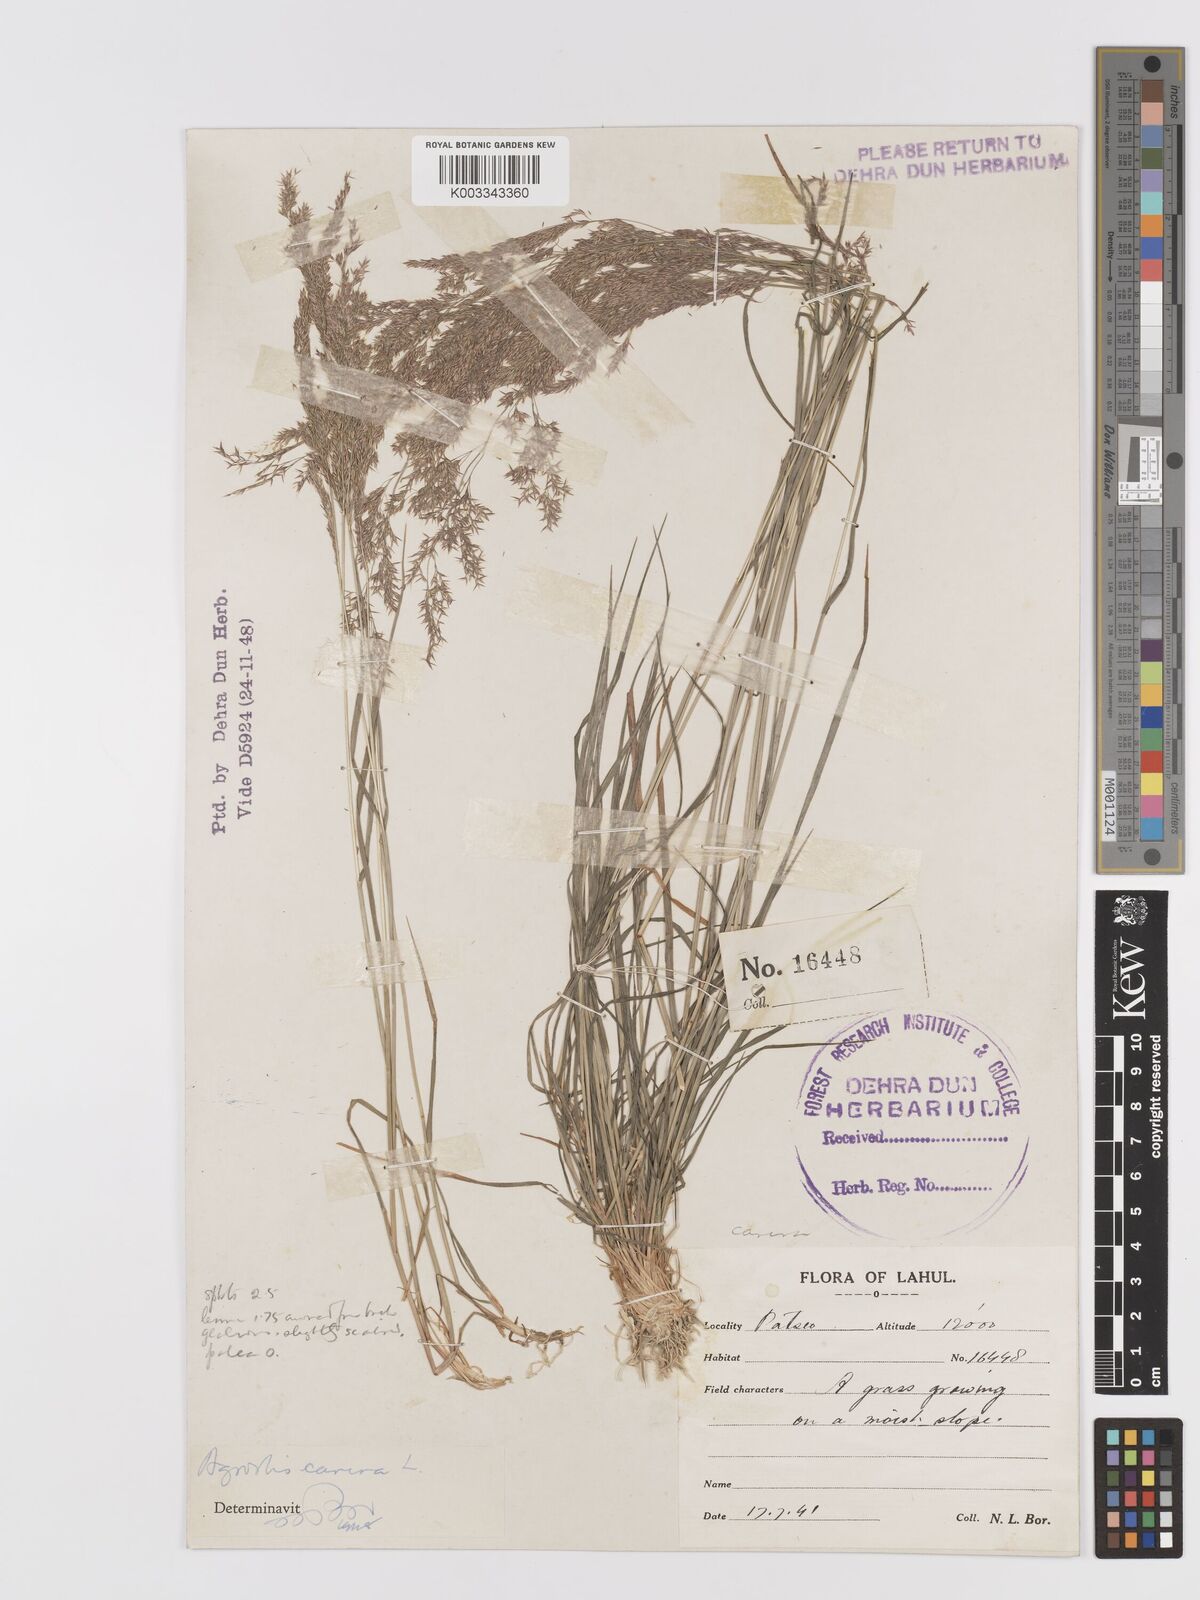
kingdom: Plantae
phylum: Tracheophyta
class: Liliopsida
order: Poales
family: Poaceae
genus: Agrostis
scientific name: Agrostis
